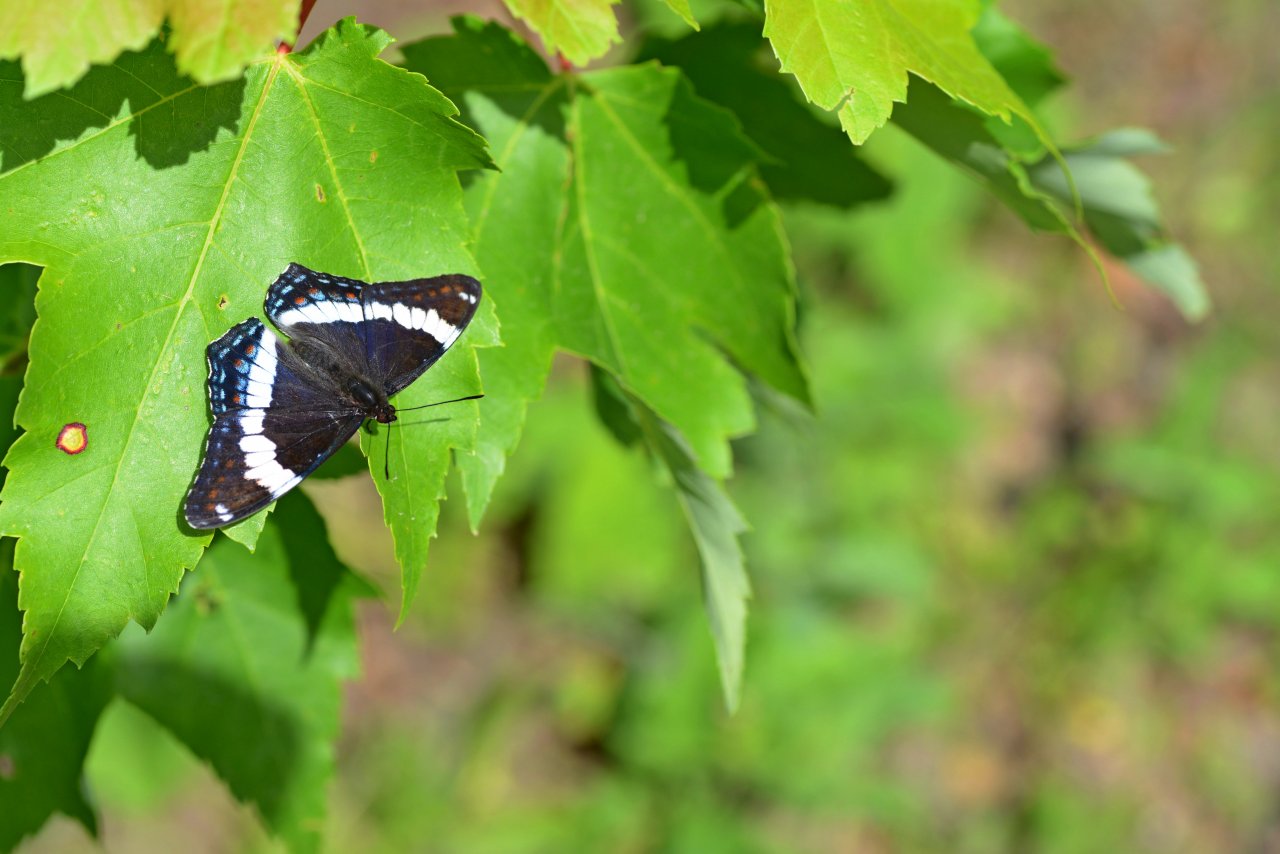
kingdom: Animalia
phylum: Arthropoda
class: Insecta
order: Lepidoptera
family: Nymphalidae
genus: Limenitis
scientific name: Limenitis arthemis
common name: Red-spotted Admiral
